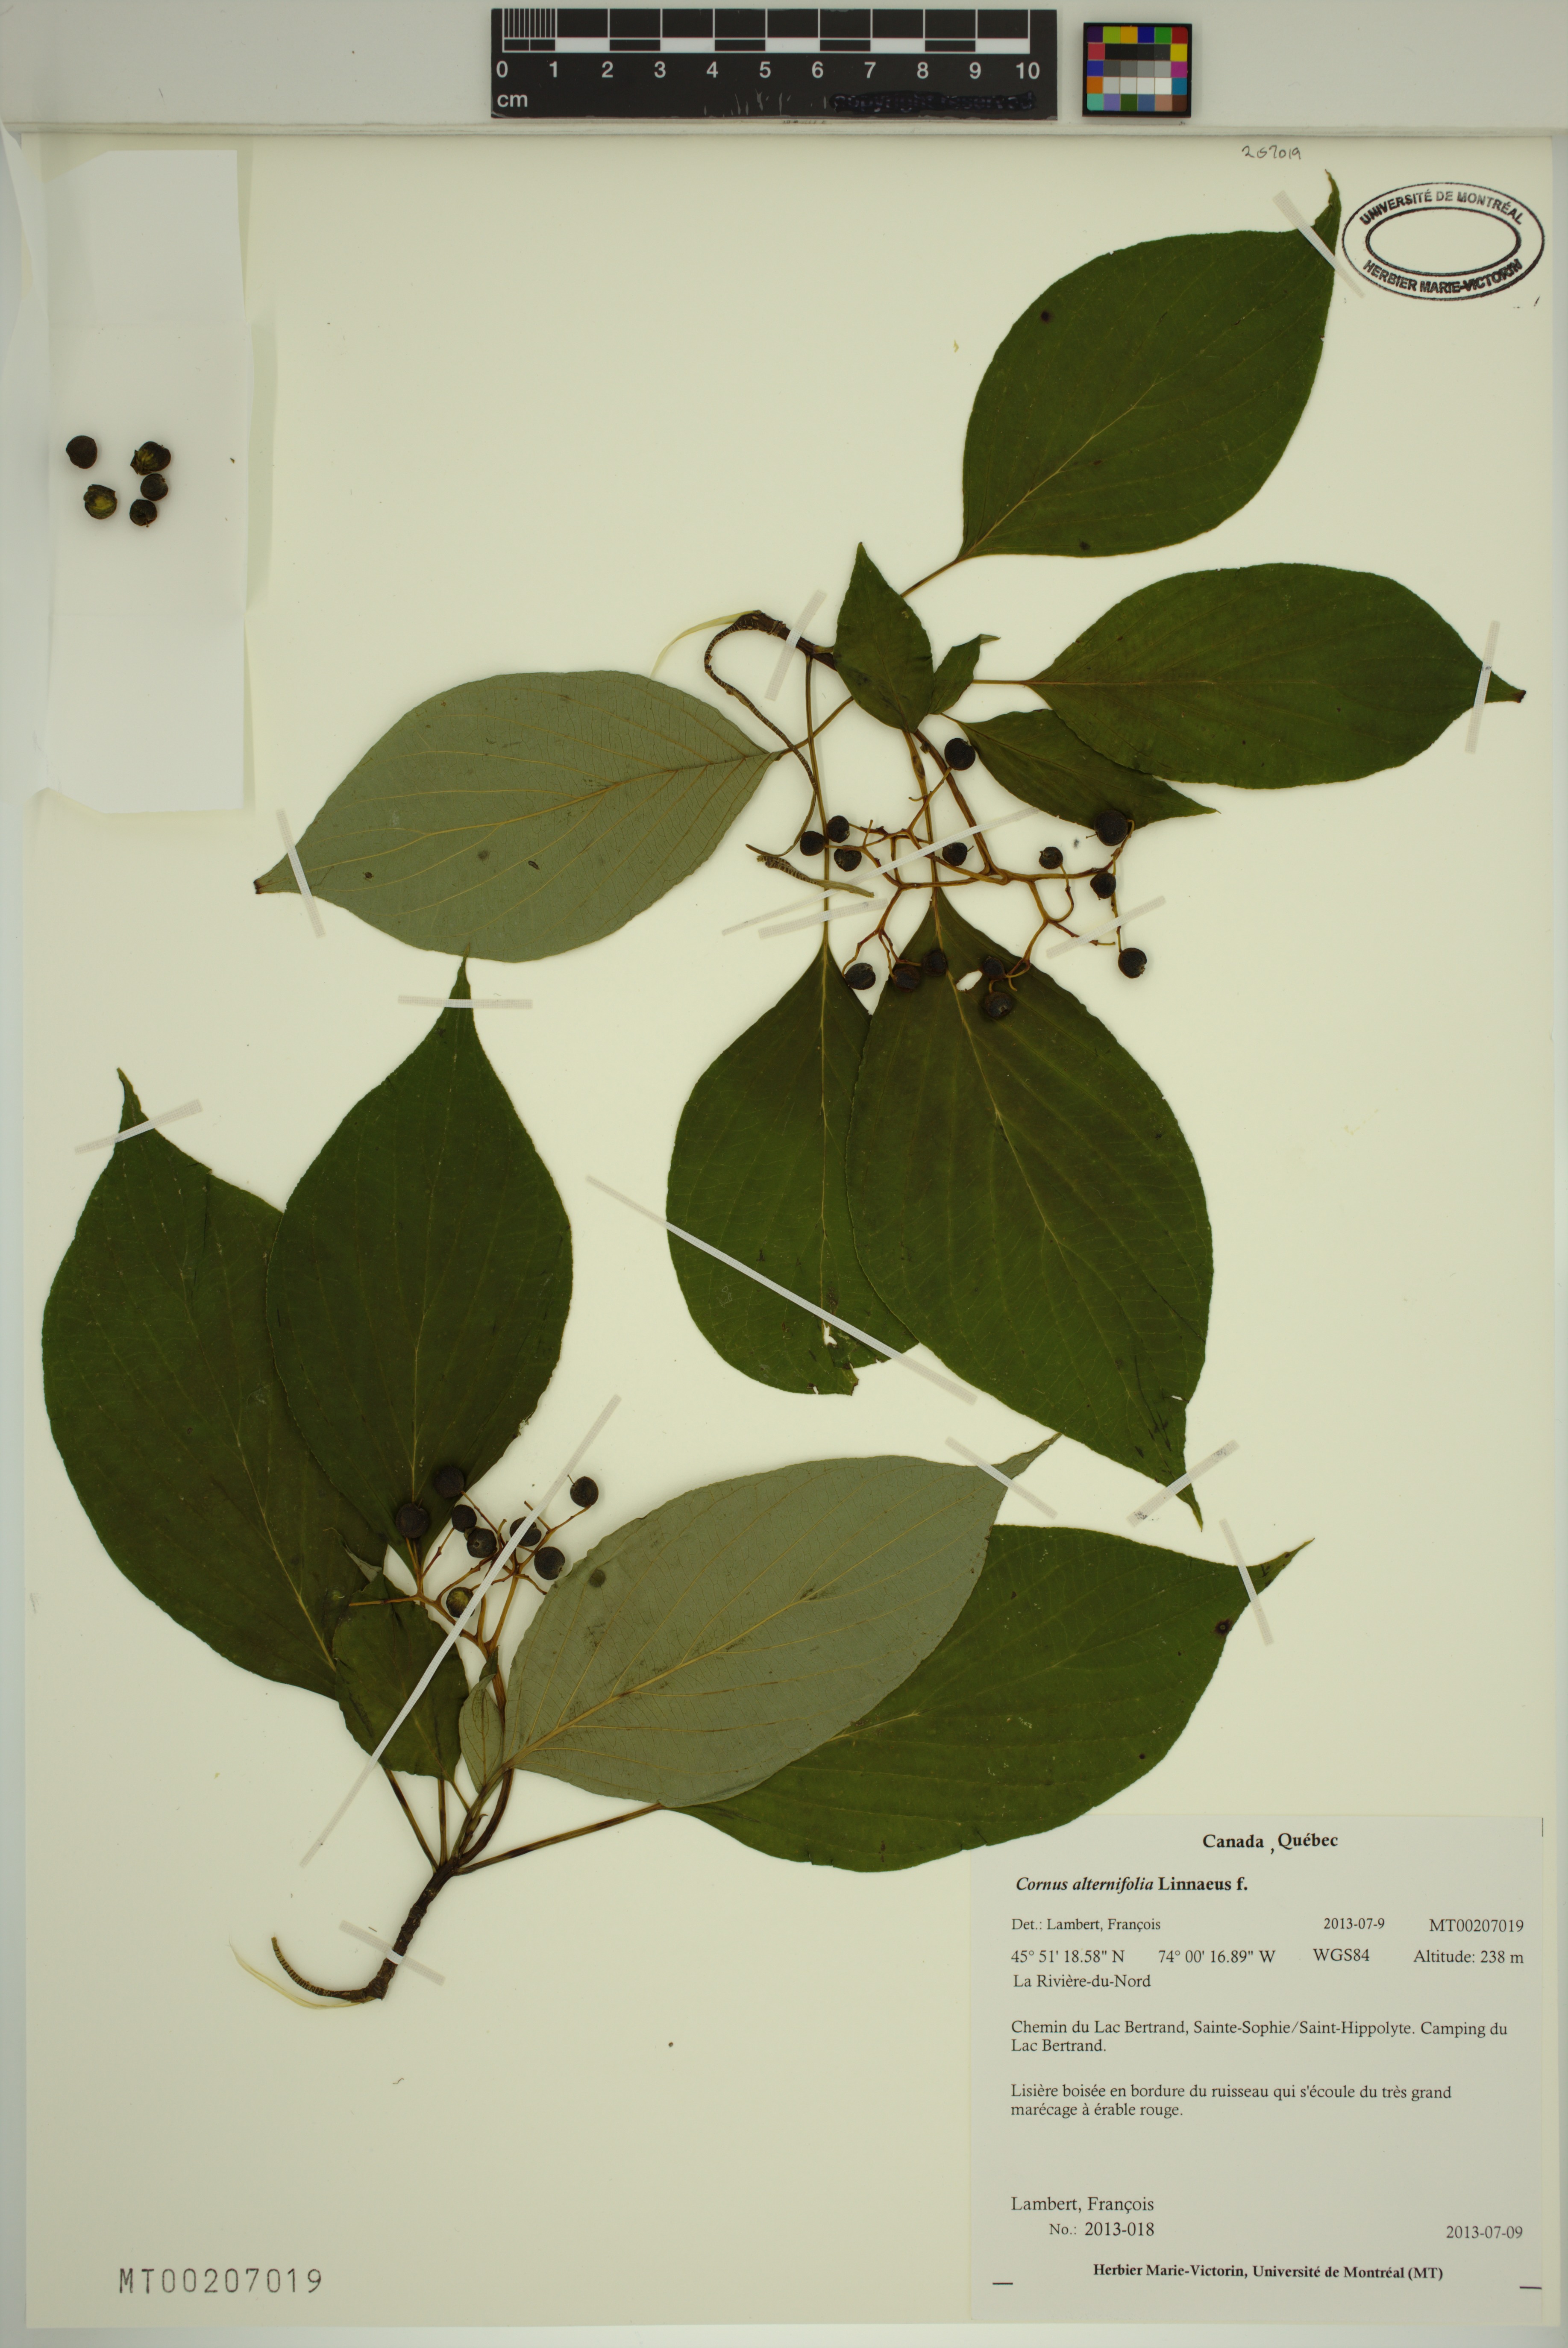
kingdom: Plantae
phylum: Tracheophyta
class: Magnoliopsida
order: Cornales
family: Cornaceae
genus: Cornus
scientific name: Cornus alternifolia
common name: Pagoda dogwood
